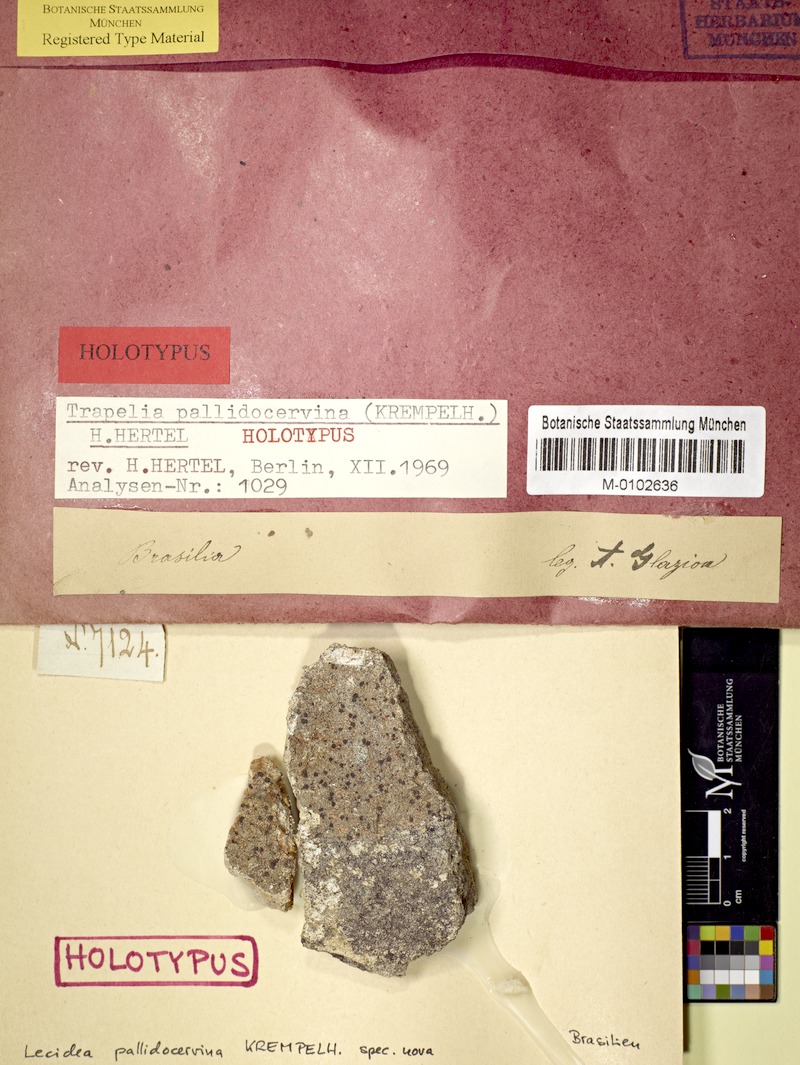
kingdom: Fungi
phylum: Ascomycota
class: Lecanoromycetes
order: Baeomycetales
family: Trapeliaceae
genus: Trapelia
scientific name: Trapelia
